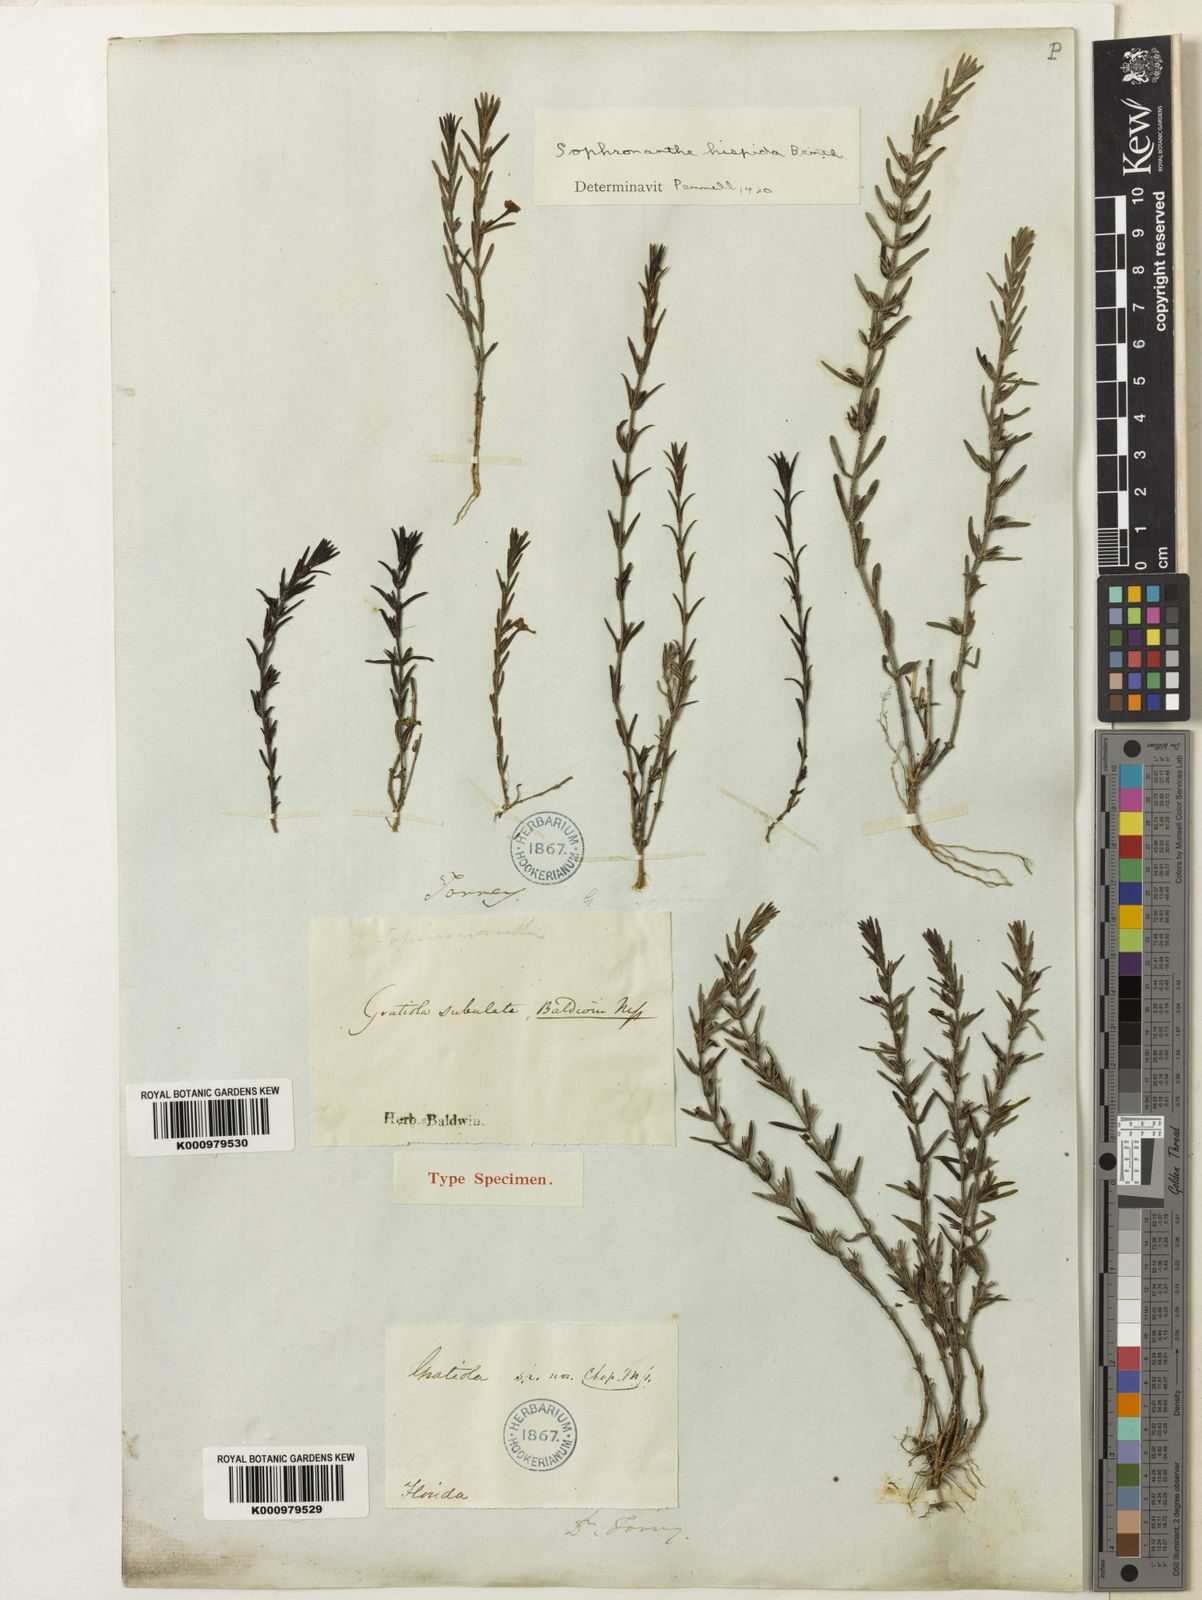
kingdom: Plantae
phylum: Tracheophyta
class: Magnoliopsida
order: Lamiales
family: Plantaginaceae
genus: Gratiola
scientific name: Gratiola hispida
